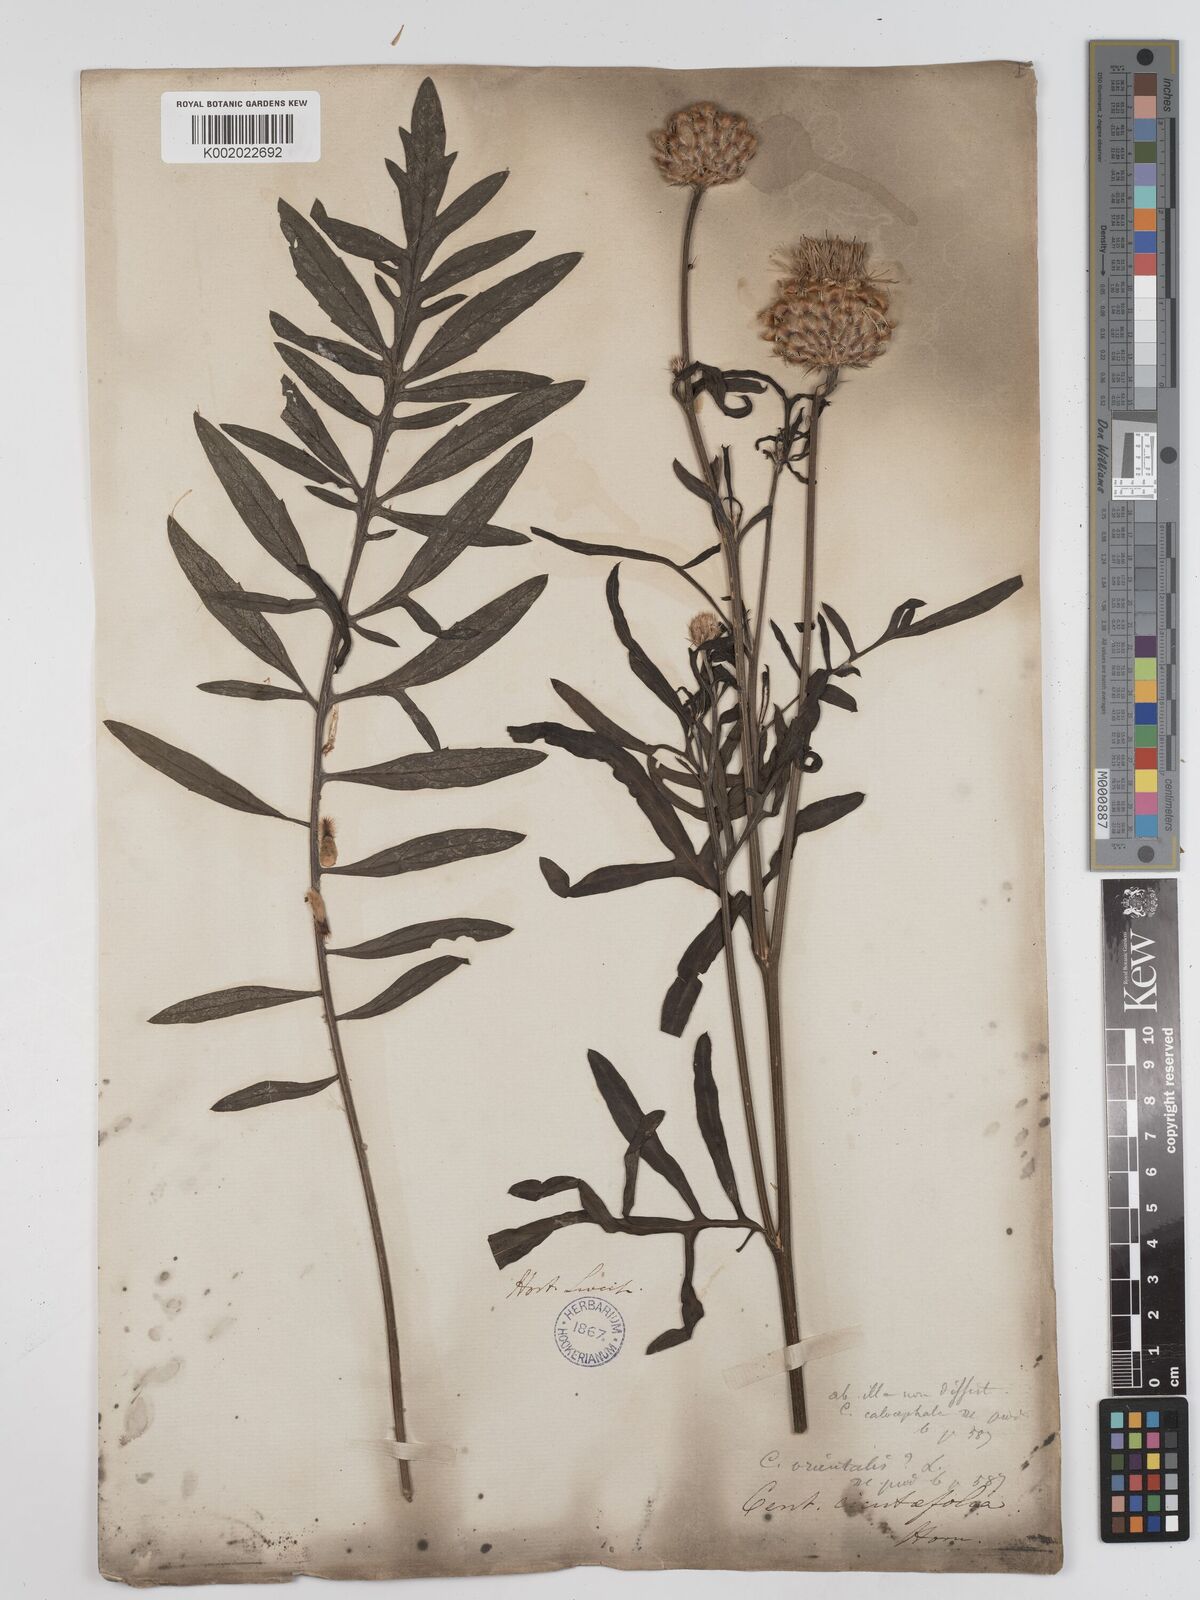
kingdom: Plantae
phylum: Tracheophyta
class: Magnoliopsida
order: Asterales
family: Asteraceae
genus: Centaurea
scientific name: Centaurea calocephala
